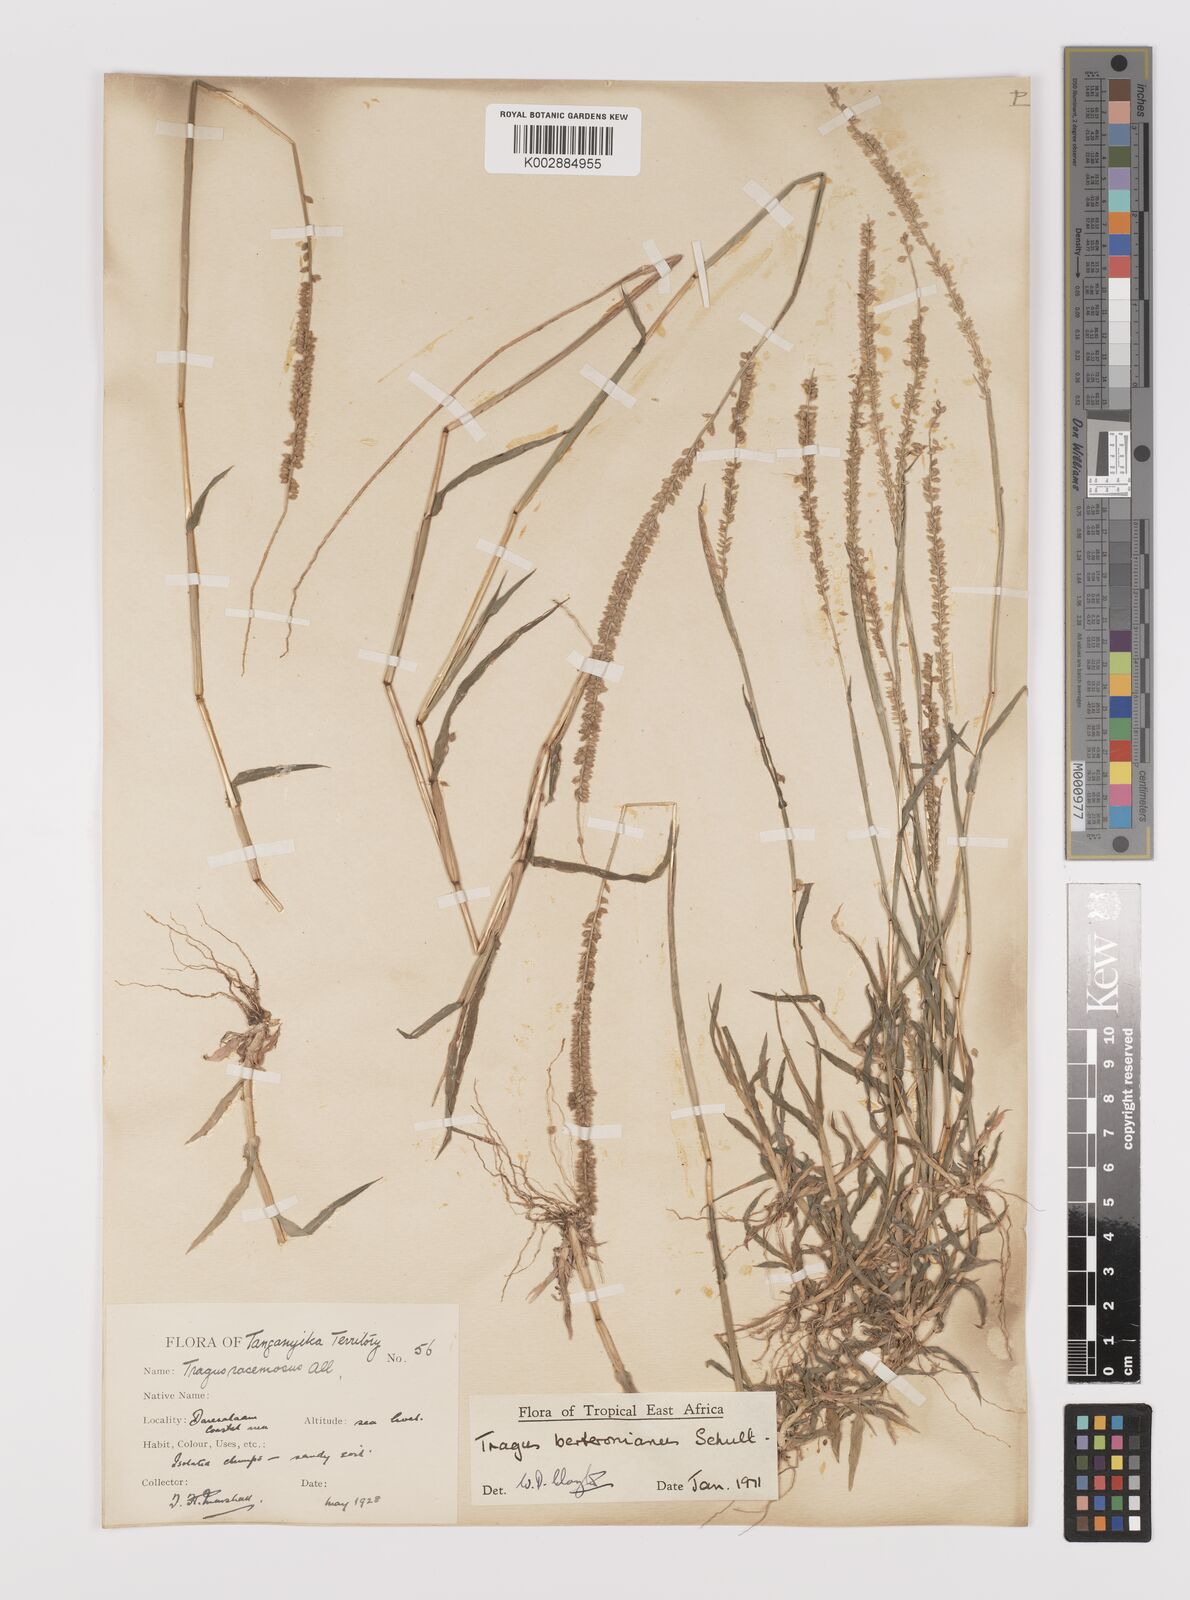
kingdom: Plantae
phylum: Tracheophyta
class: Liliopsida
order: Poales
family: Poaceae
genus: Tragus
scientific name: Tragus berteronianus
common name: African bur-grass
